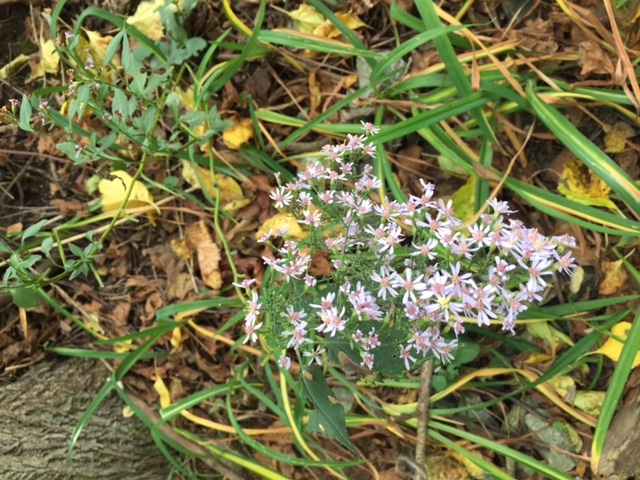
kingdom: Plantae
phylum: Tracheophyta
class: Magnoliopsida
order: Asterales
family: Asteraceae
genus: Symphyotrichum
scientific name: Symphyotrichum cordifolium
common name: White Wood Aster
